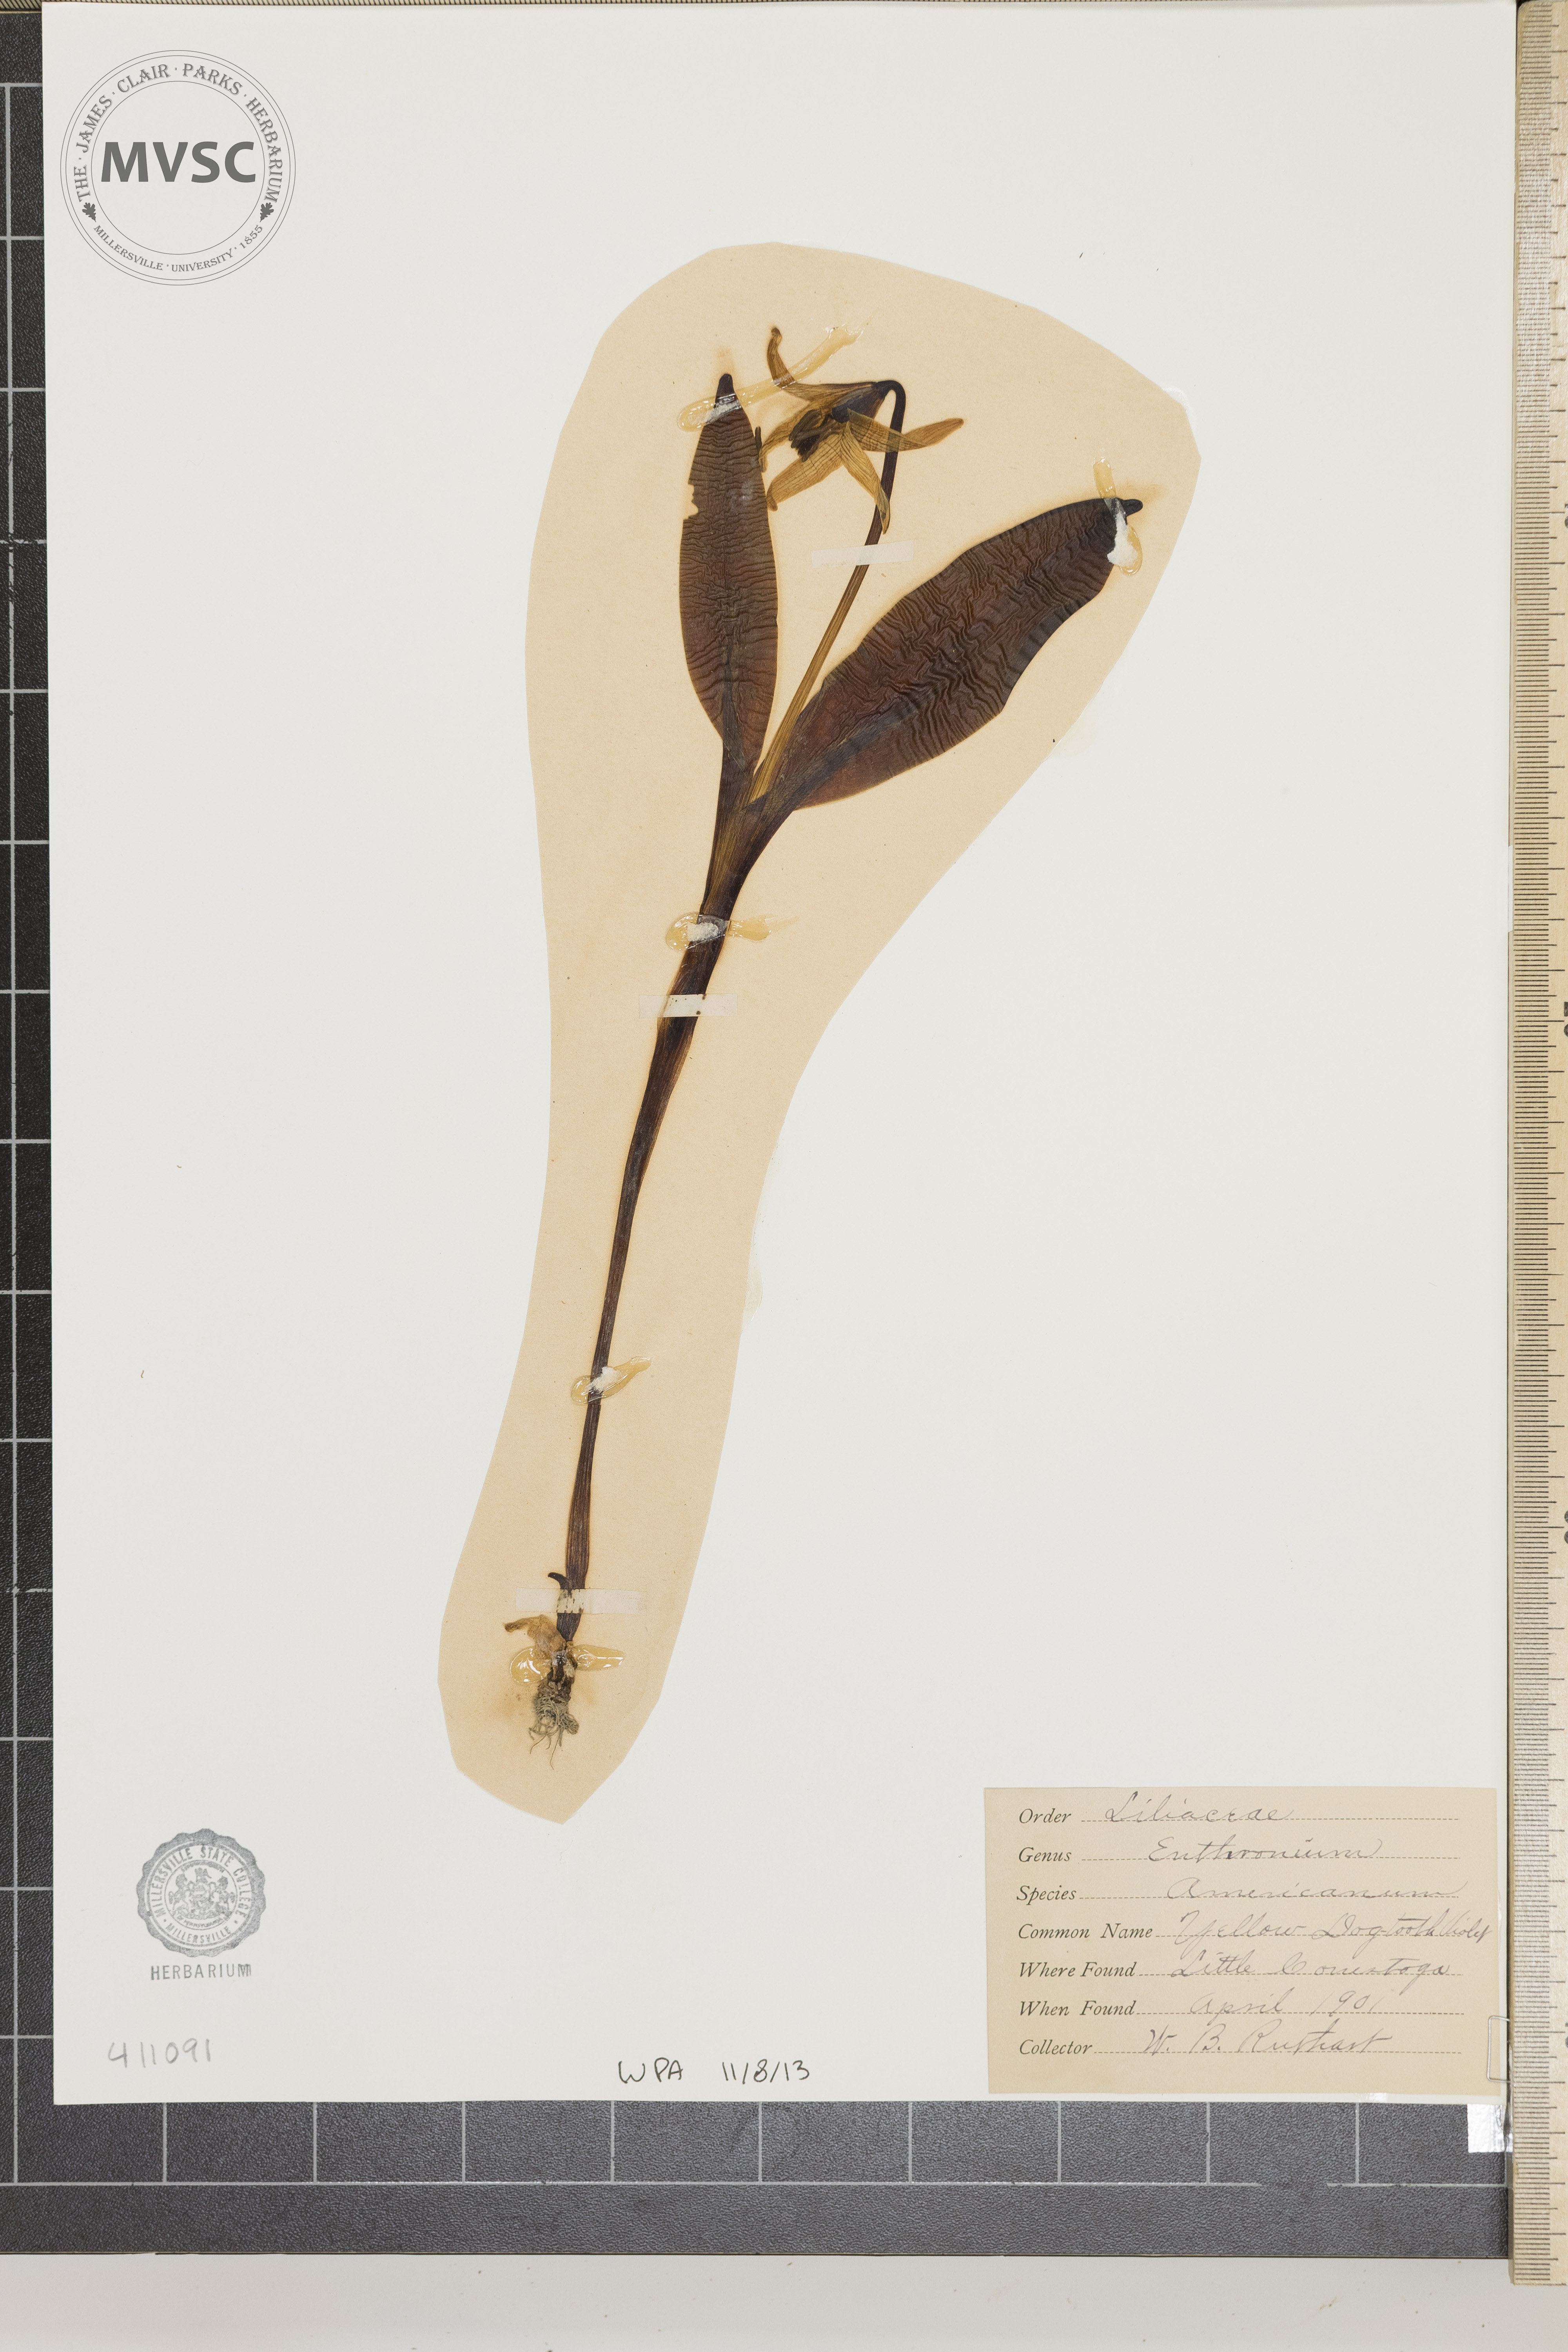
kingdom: Plantae
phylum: Tracheophyta
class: Liliopsida
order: Liliales
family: Liliaceae
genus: Erythronium
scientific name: Erythronium americanum
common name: Yellow adder's-tongue
